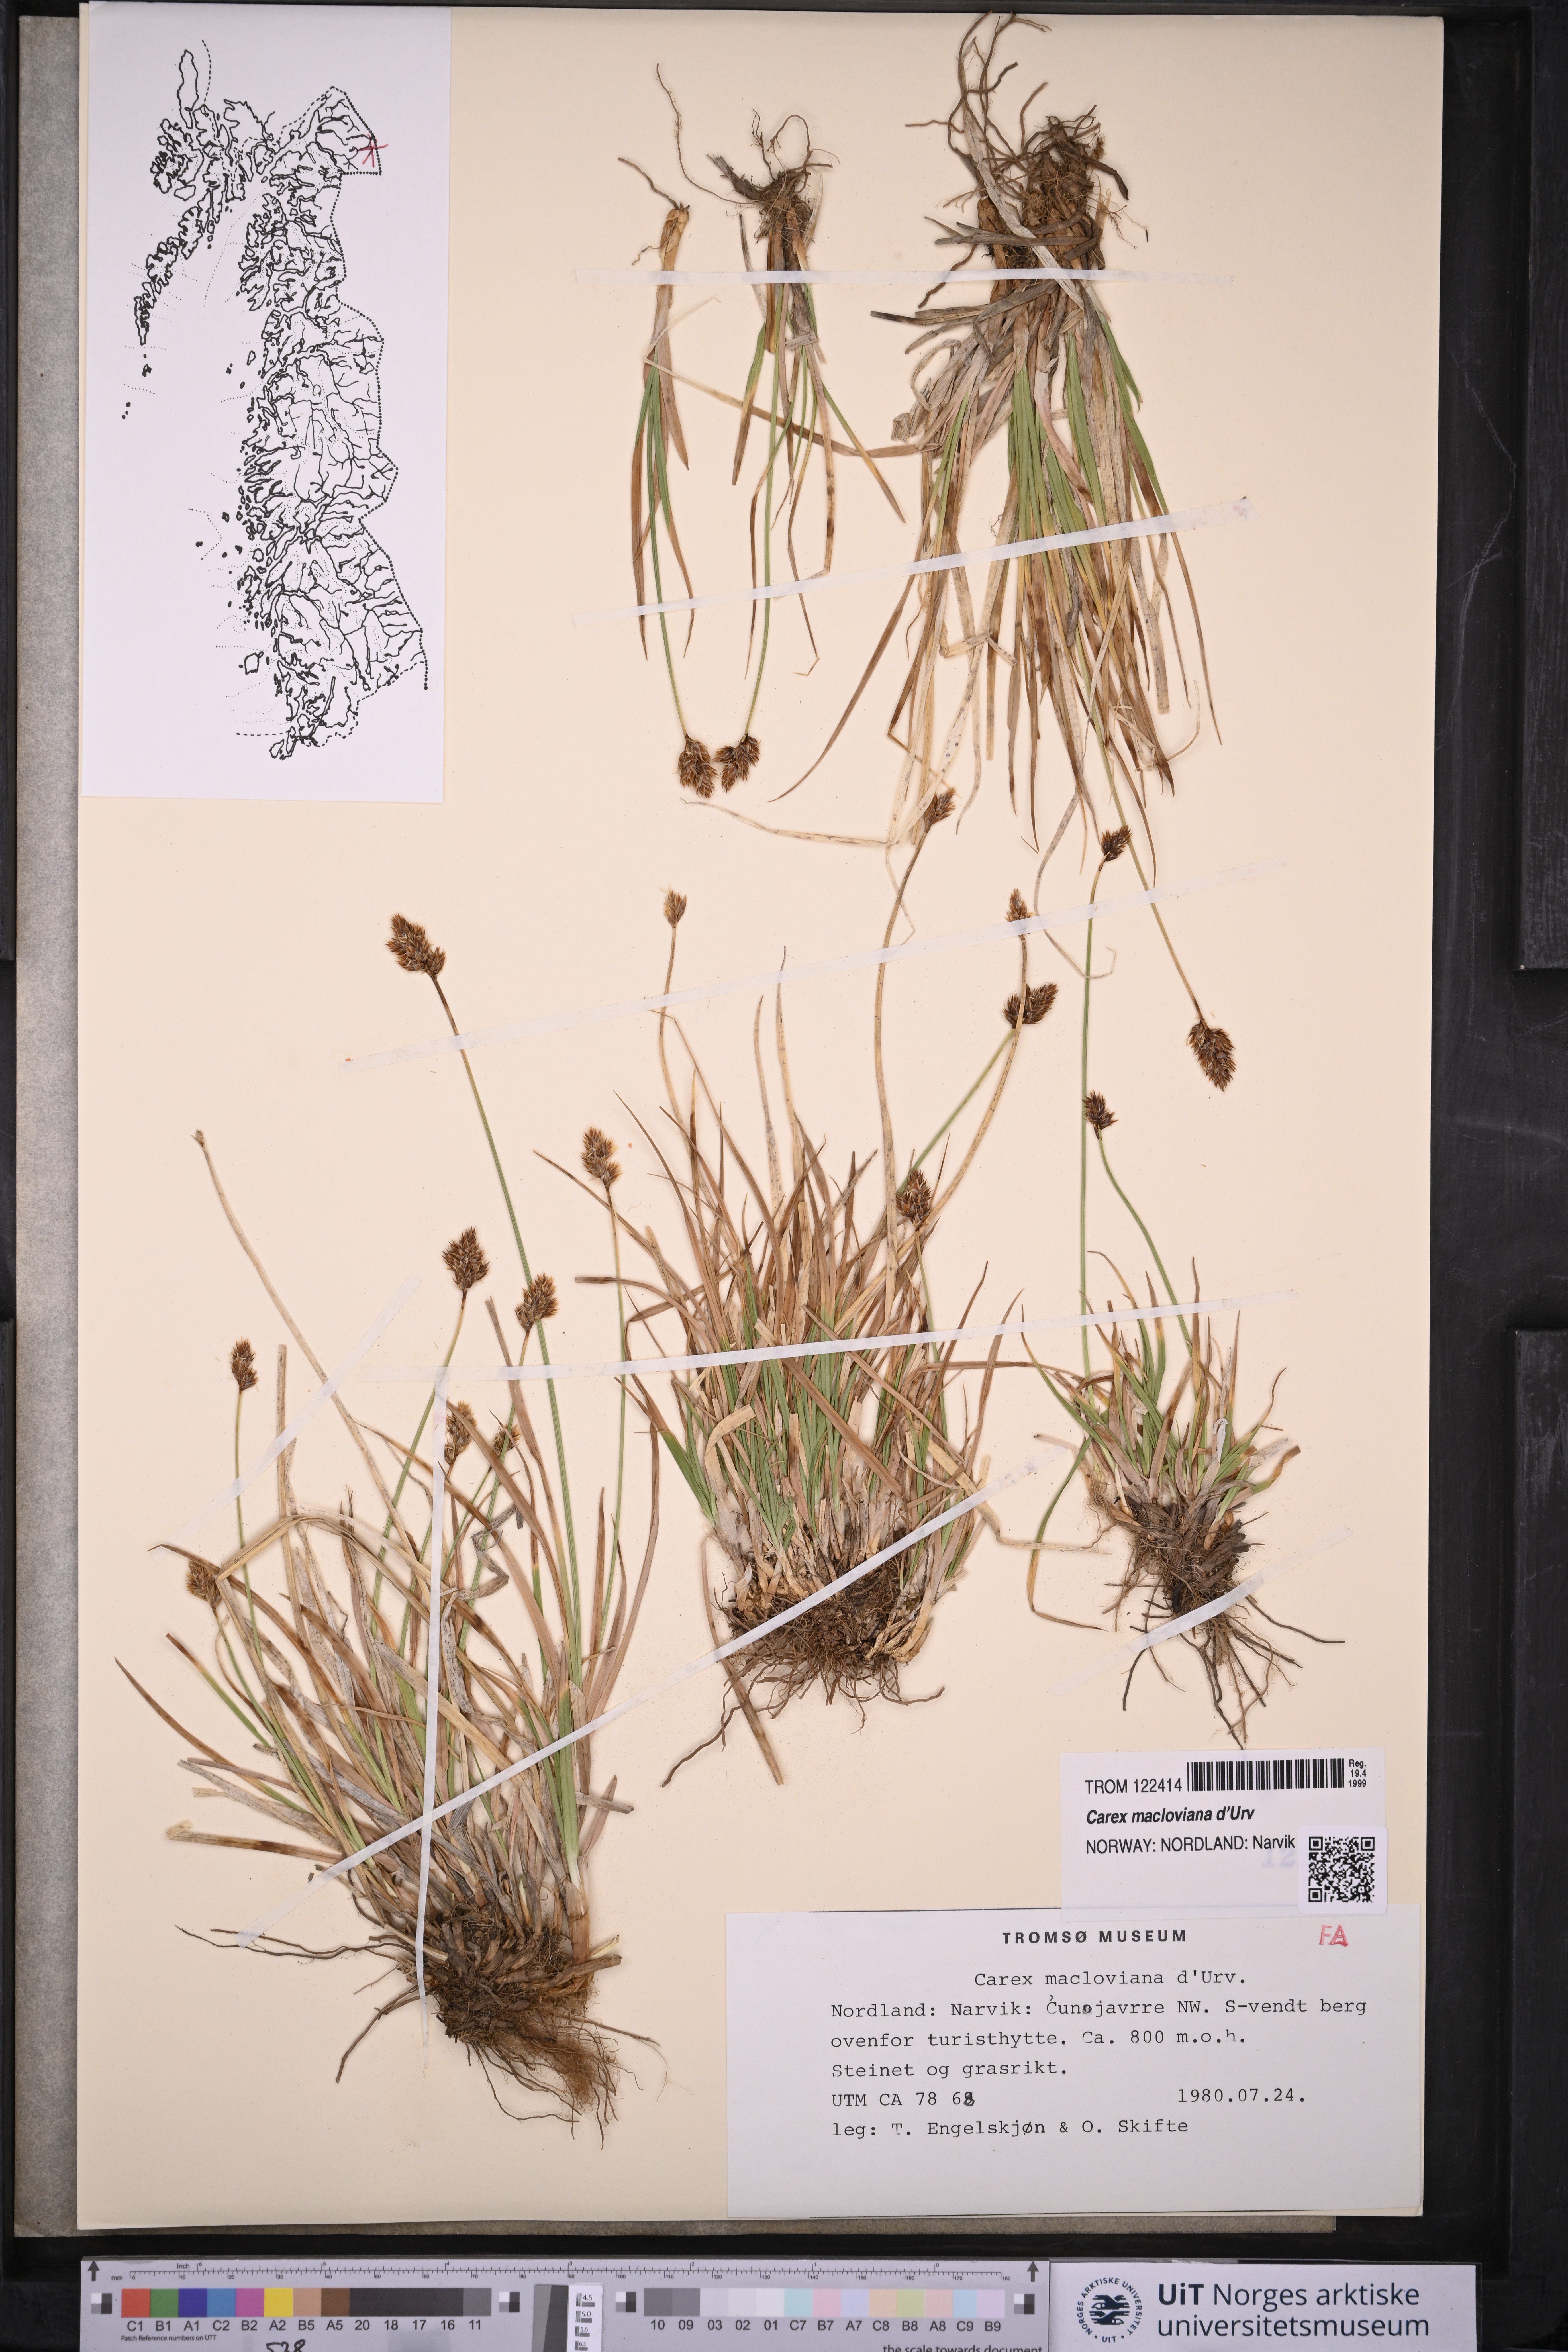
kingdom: Plantae
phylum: Tracheophyta
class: Liliopsida
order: Poales
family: Cyperaceae
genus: Carex
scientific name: Carex macloviana
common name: Falkland island sedge
